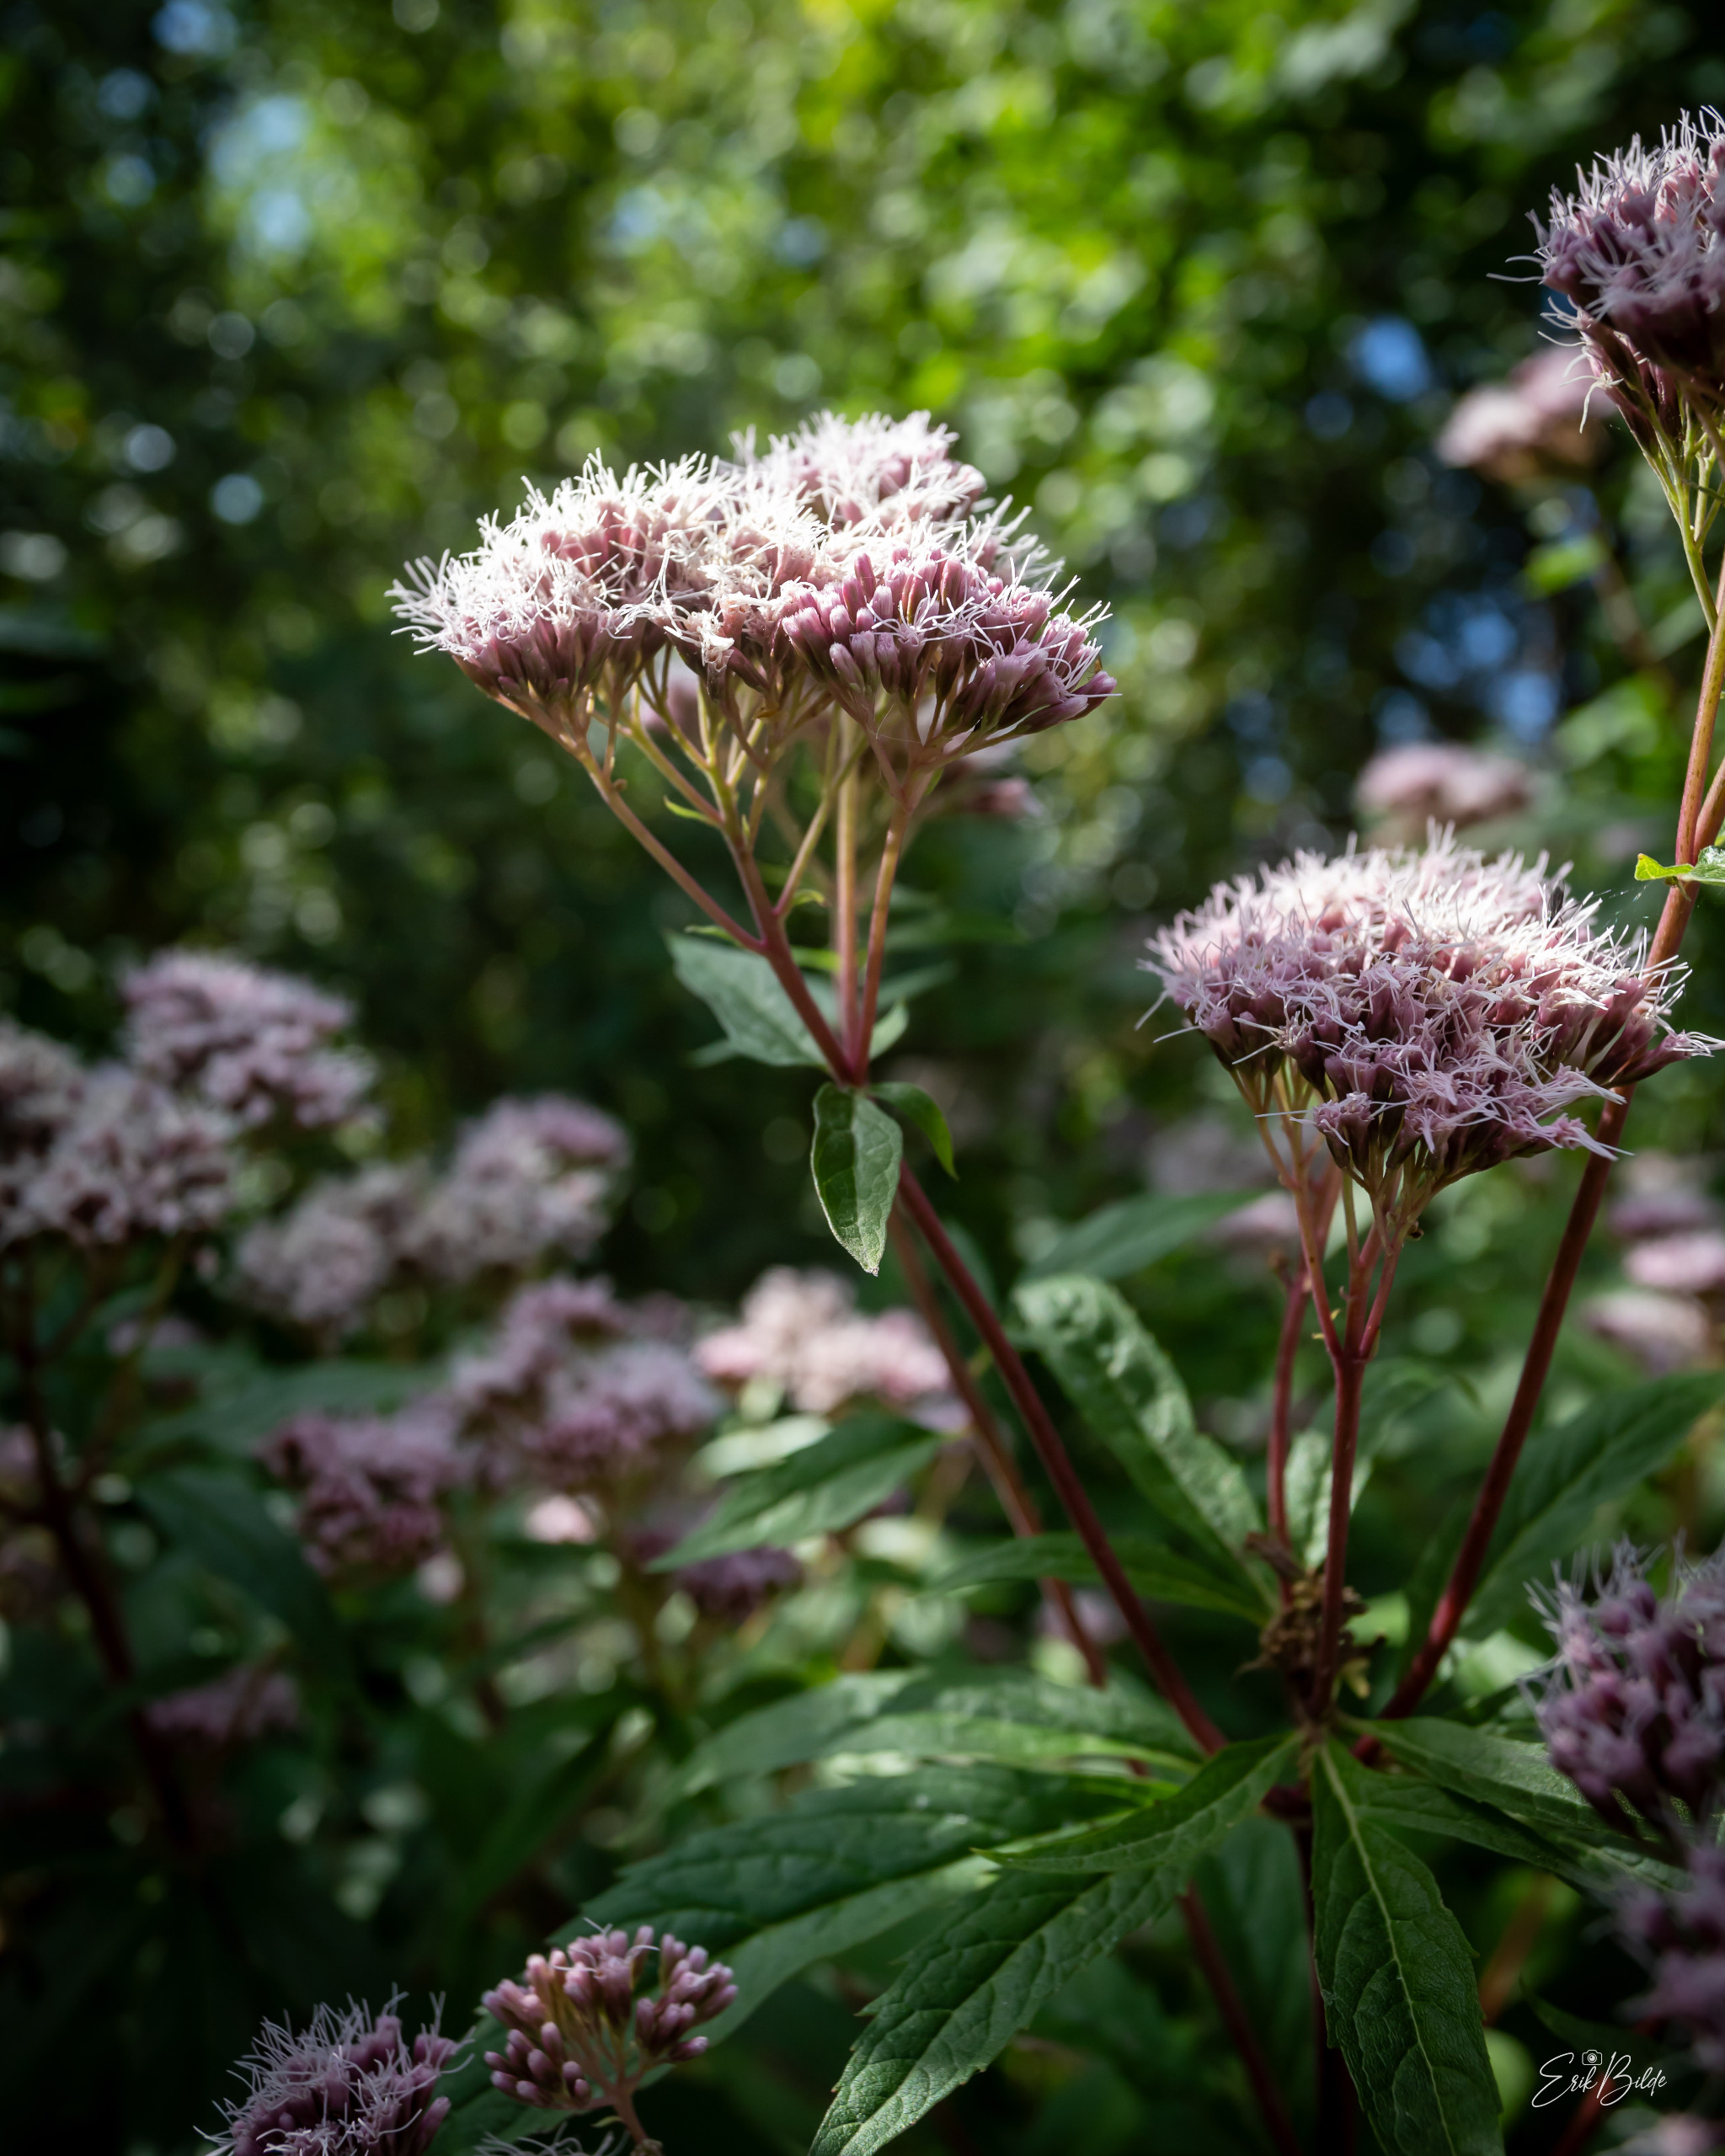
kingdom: Plantae
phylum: Tracheophyta
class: Magnoliopsida
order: Asterales
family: Asteraceae
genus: Eupatorium
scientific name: Eupatorium cannabinum
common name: Hjortetrøst
